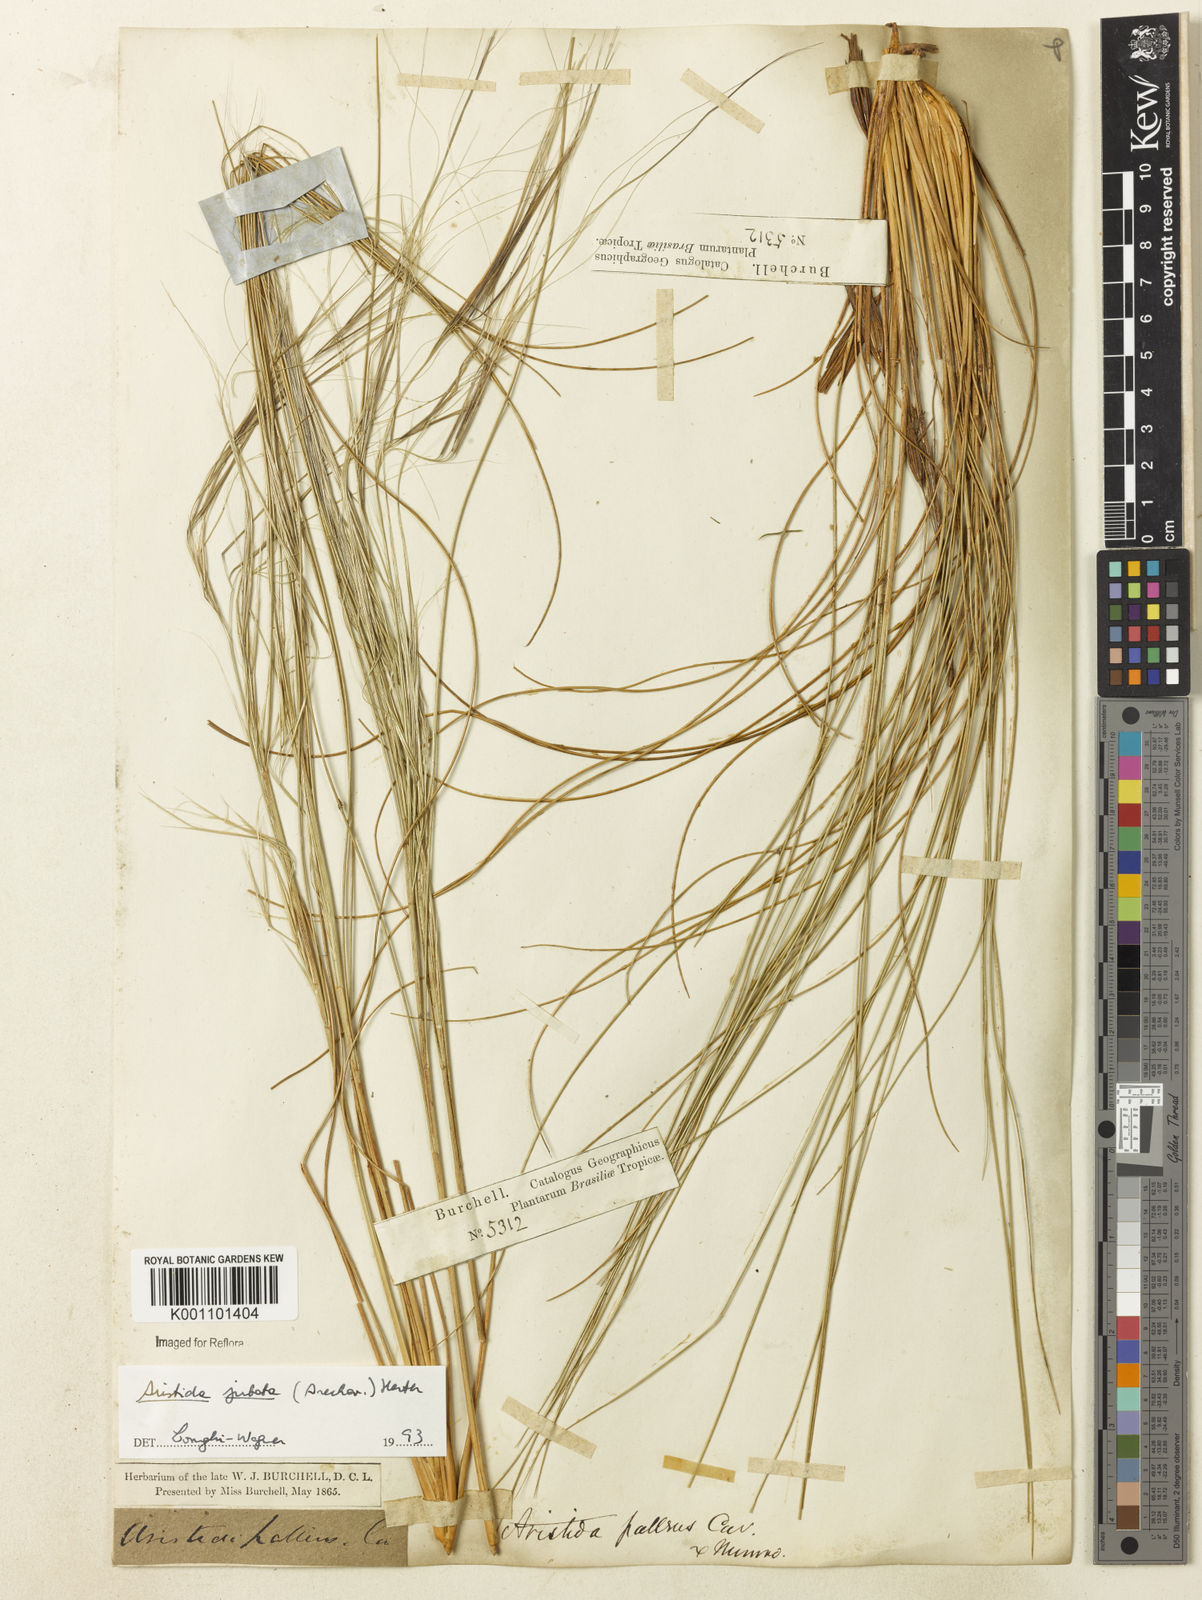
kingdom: Plantae
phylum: Tracheophyta
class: Liliopsida
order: Poales
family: Poaceae
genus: Aristida
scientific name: Aristida jubata
